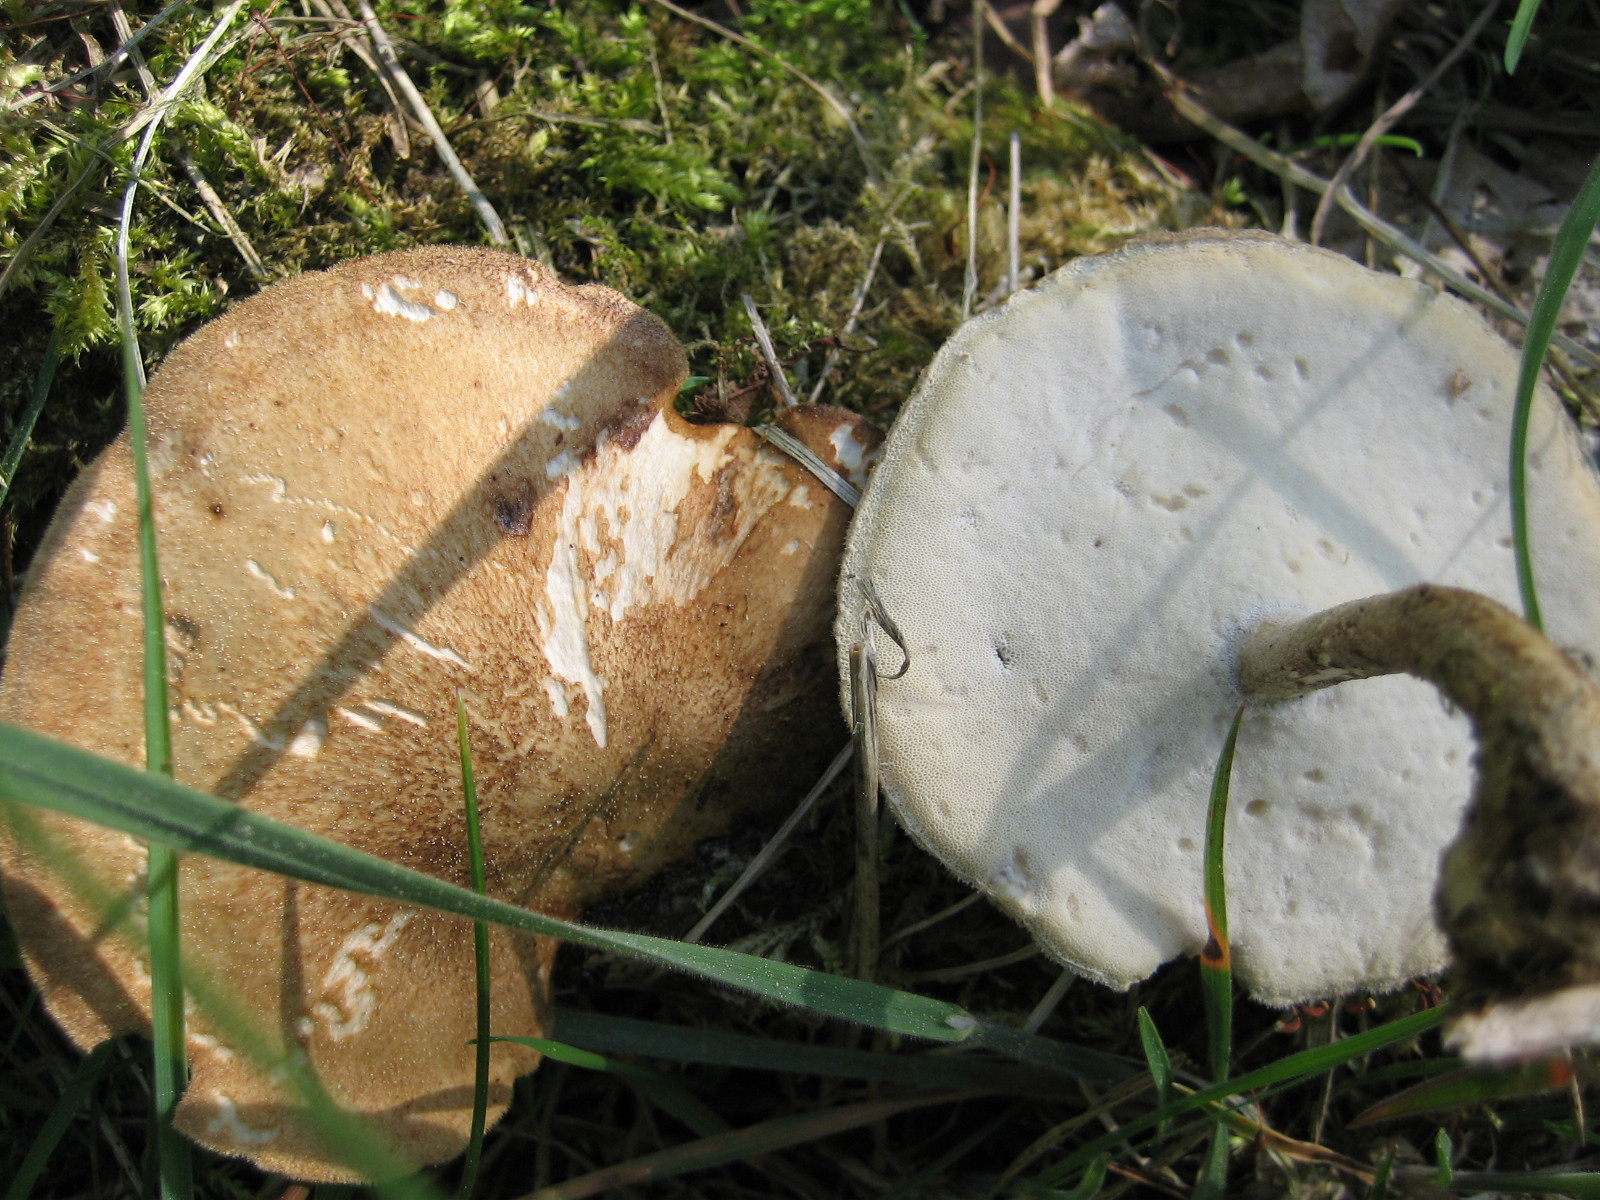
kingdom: Fungi
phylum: Basidiomycota
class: Agaricomycetes
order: Polyporales
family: Polyporaceae
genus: Lentinus
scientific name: Lentinus substrictus
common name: forårs-stilkporesvamp
